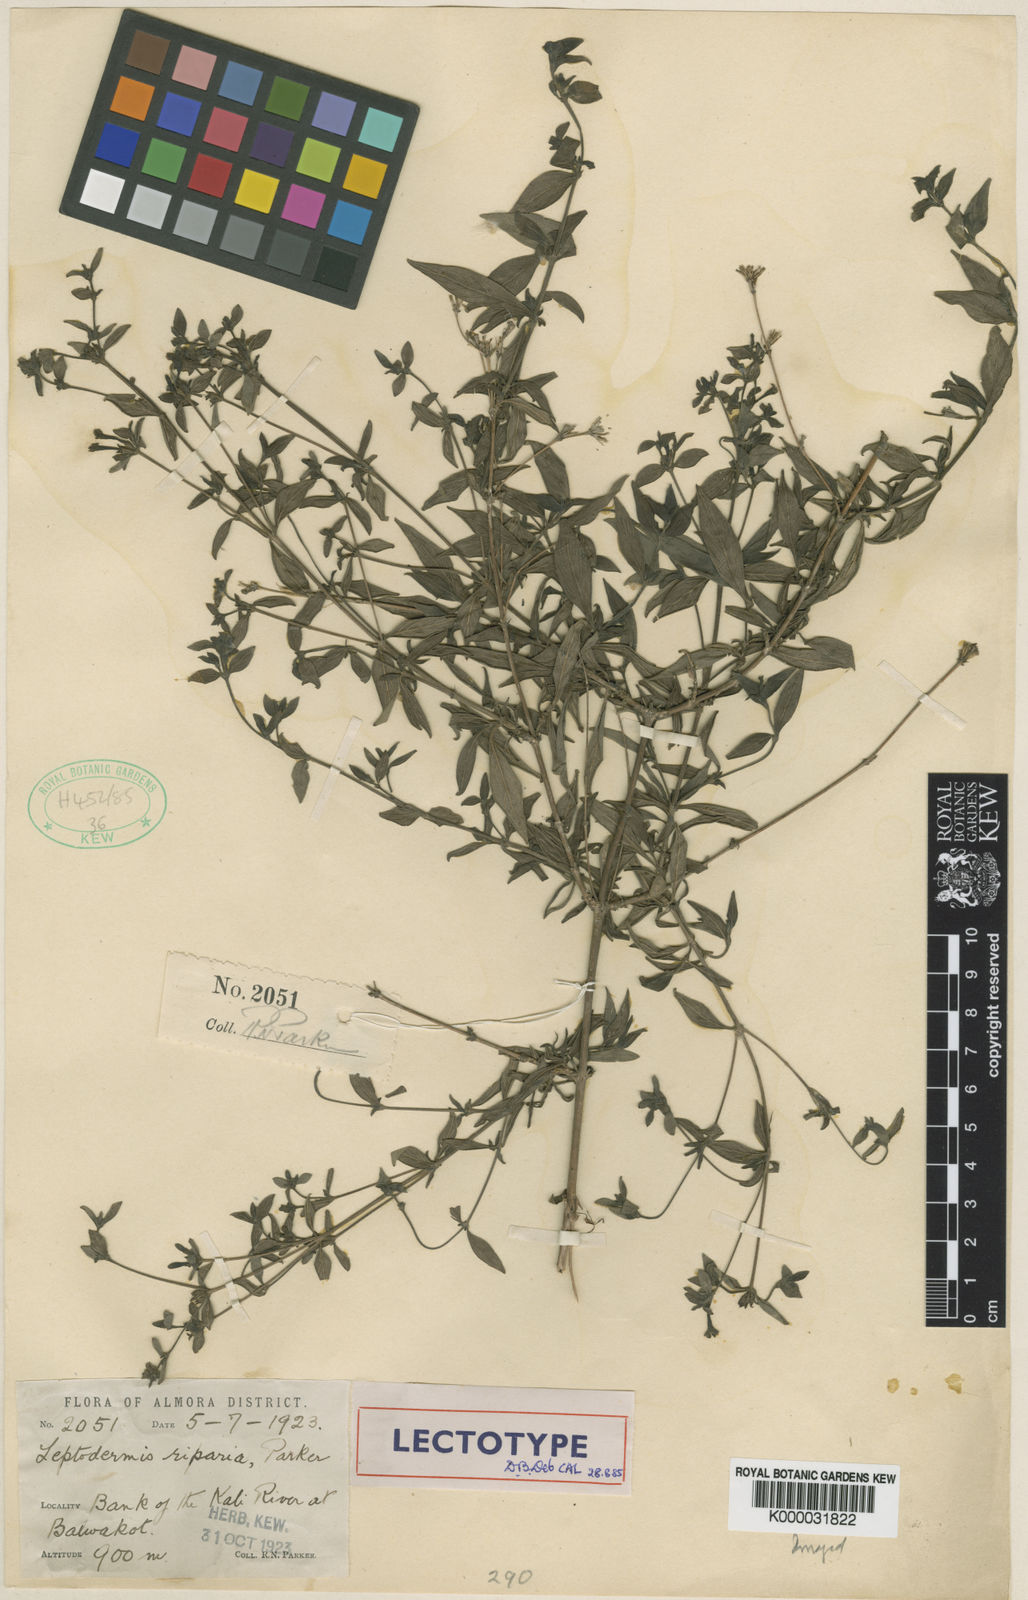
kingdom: Plantae
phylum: Tracheophyta
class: Magnoliopsida
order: Gentianales
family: Rubiaceae
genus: Leptodermis
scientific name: Leptodermis parkeri
